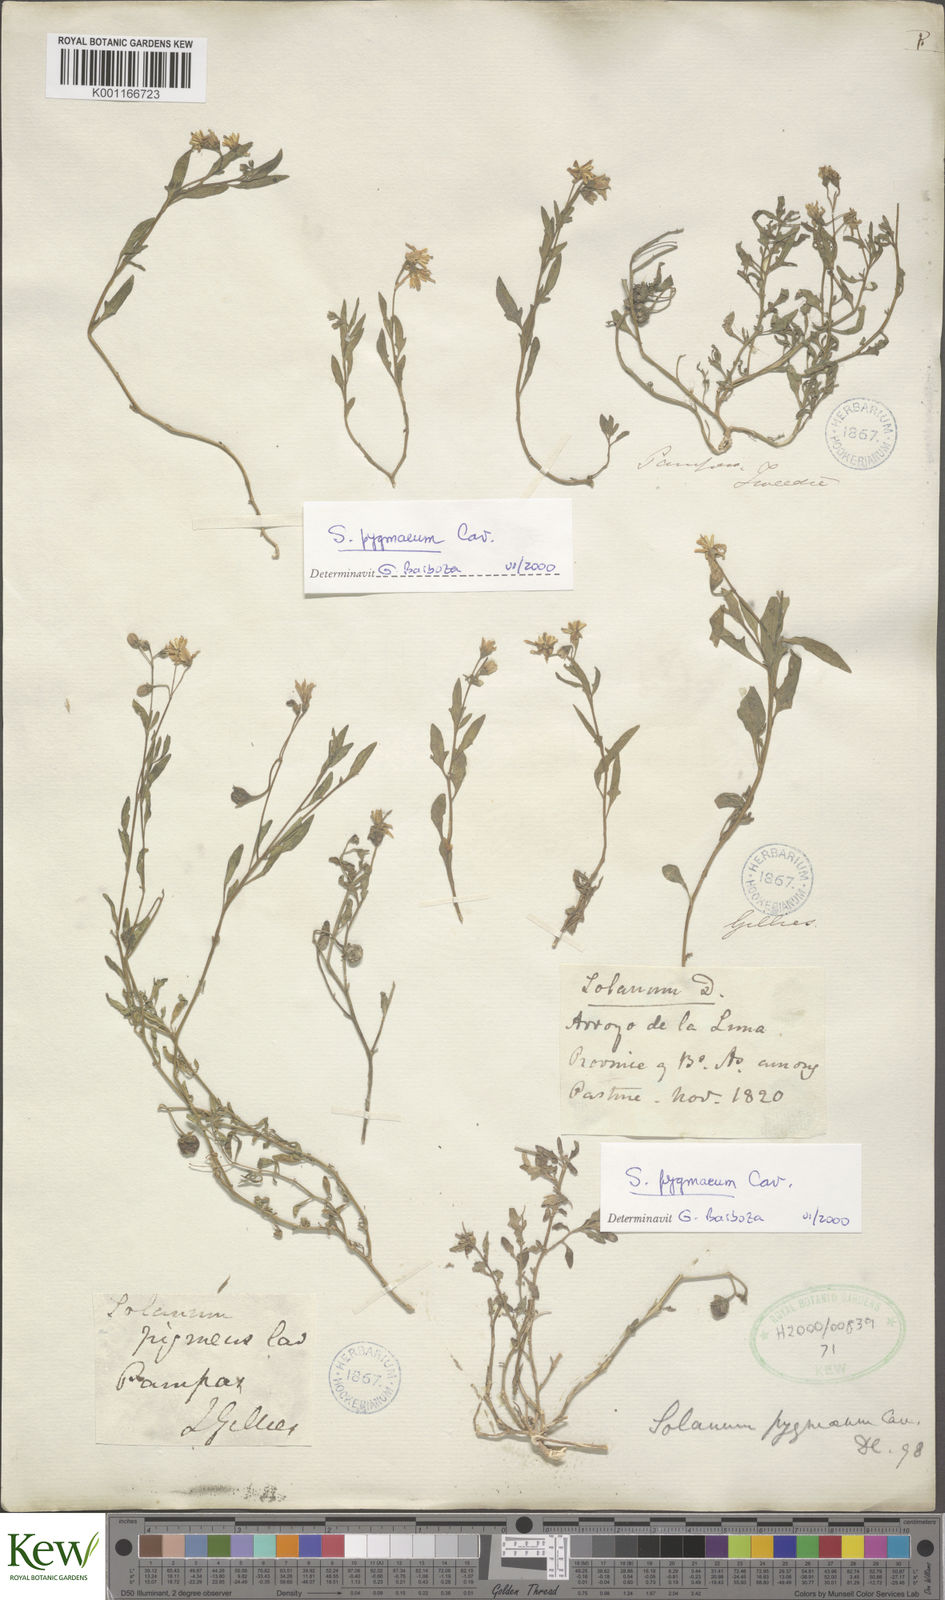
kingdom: Plantae
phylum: Tracheophyta
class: Magnoliopsida
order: Solanales
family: Solanaceae
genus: Solanum
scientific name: Solanum pygmaeum
